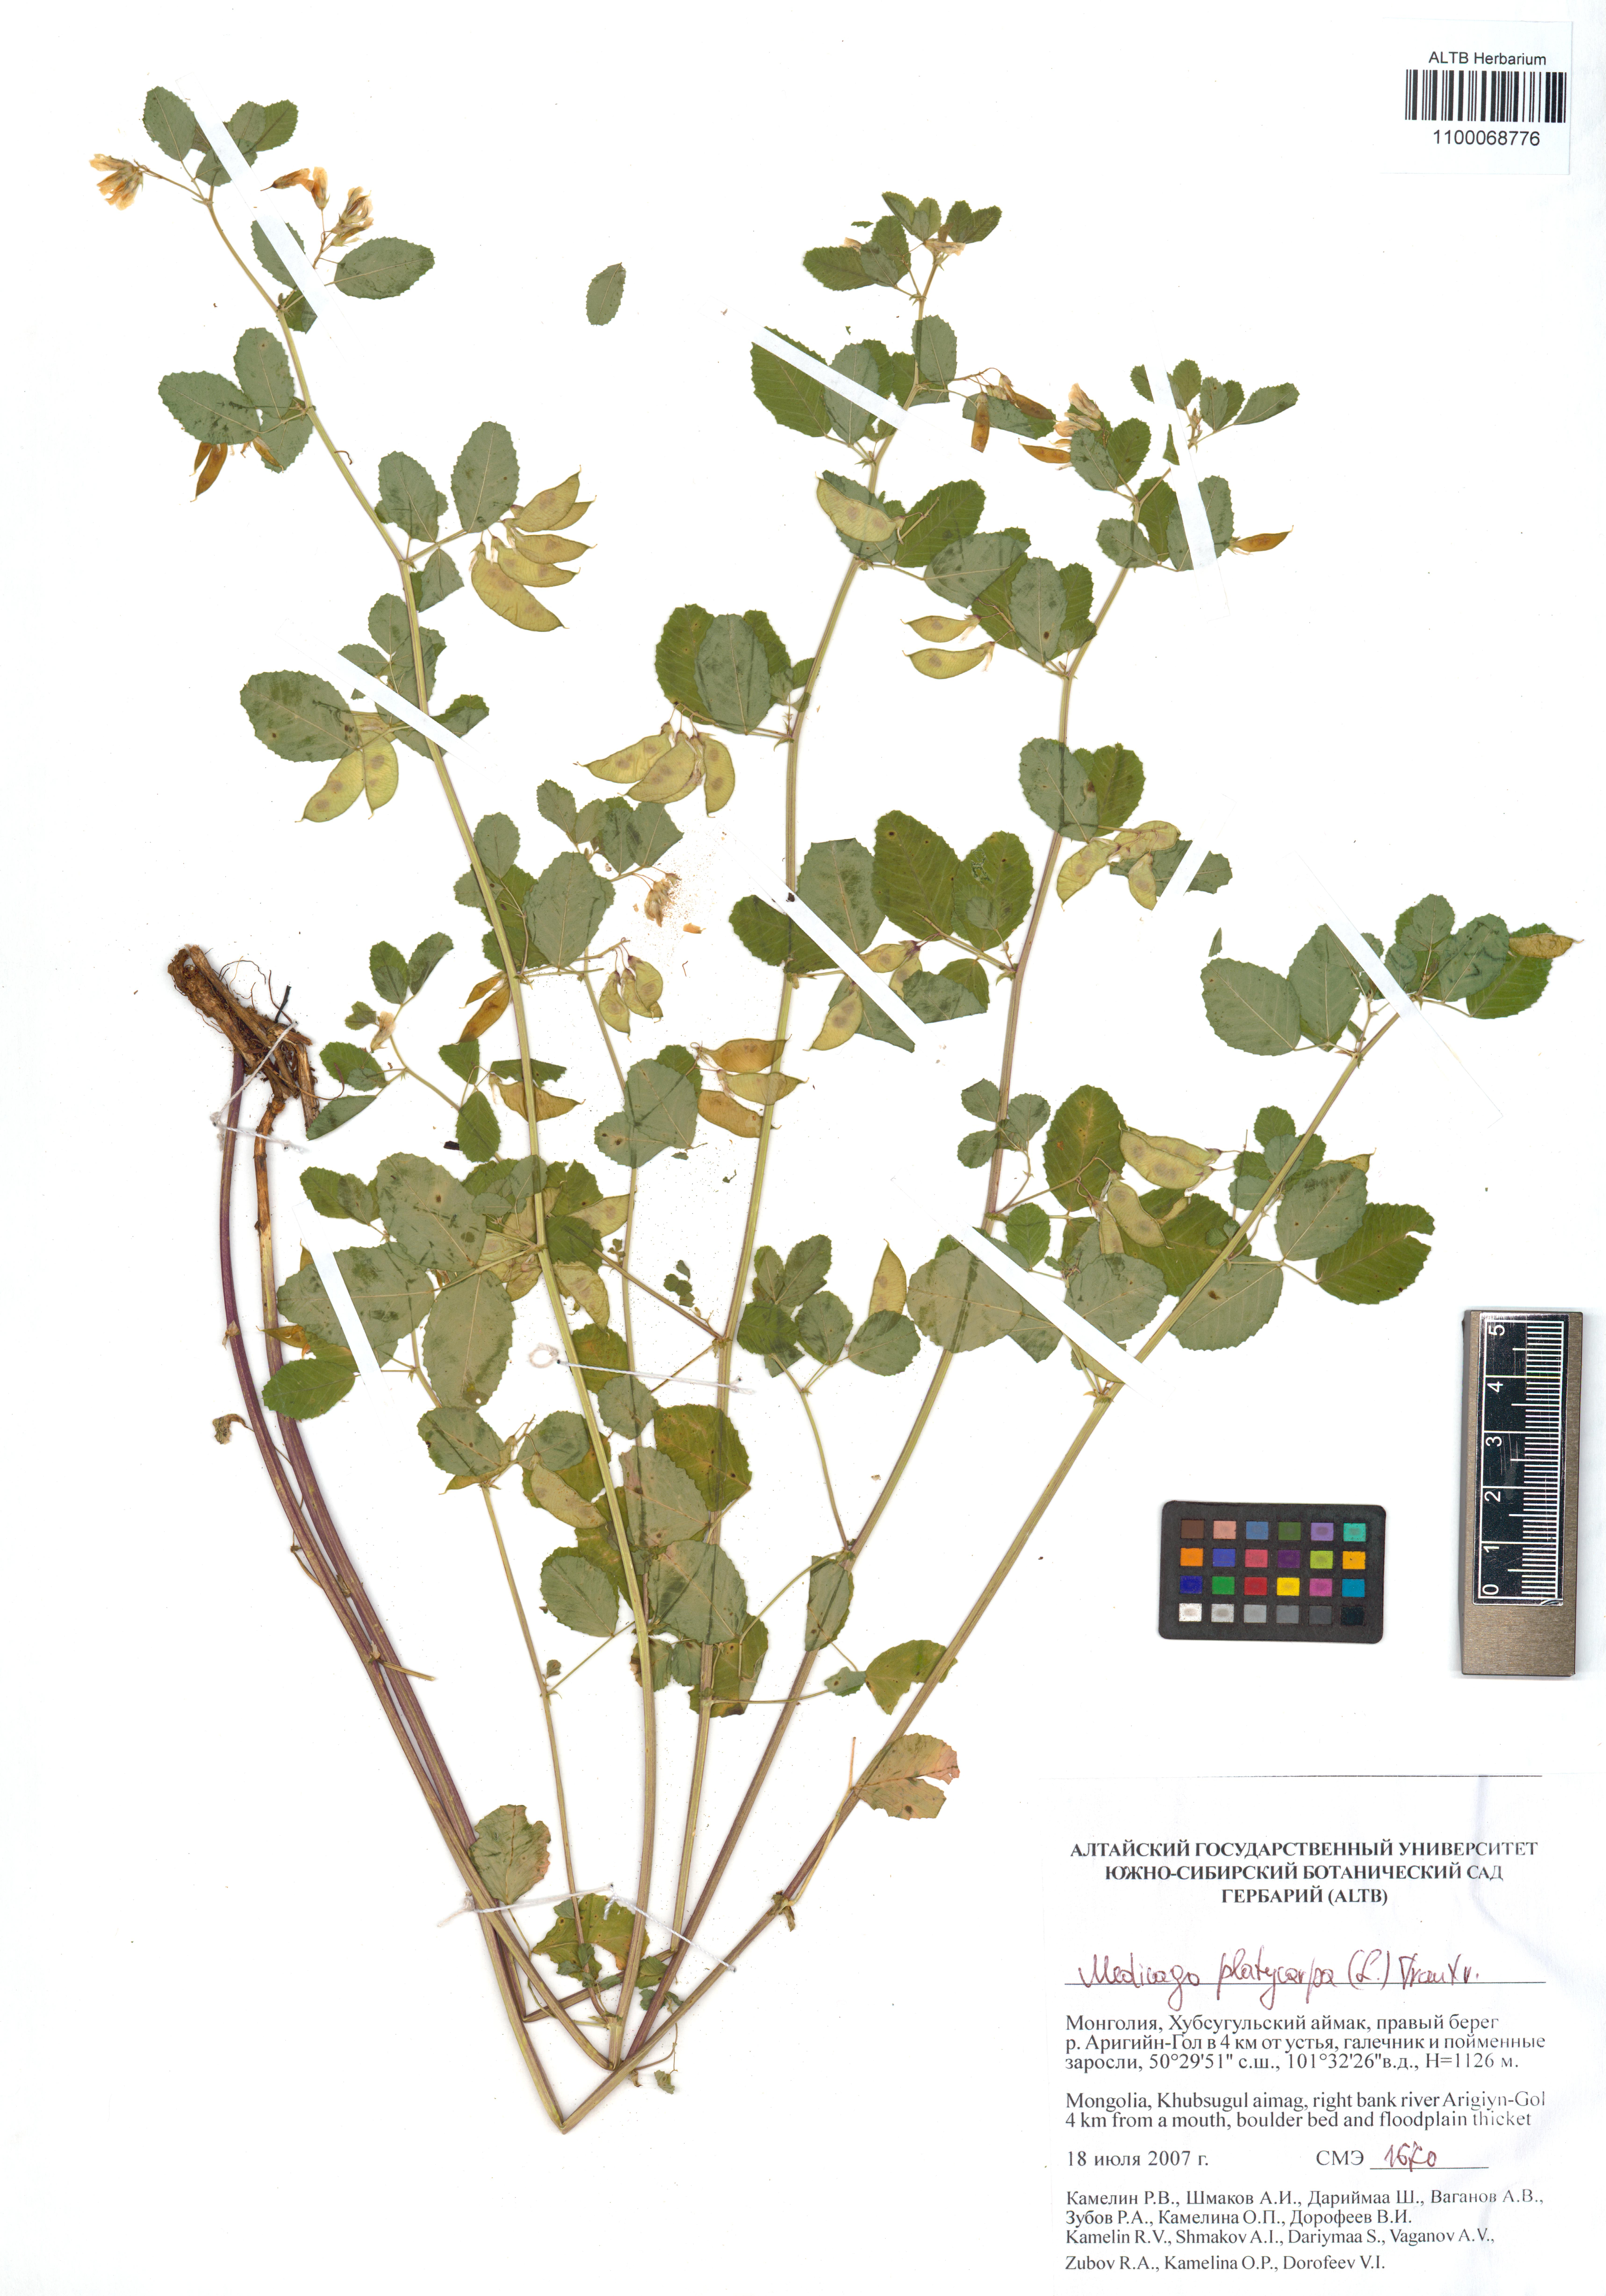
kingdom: Plantae
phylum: Tracheophyta
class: Magnoliopsida
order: Fabales
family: Fabaceae
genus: Medicago
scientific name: Medicago platycarpos
